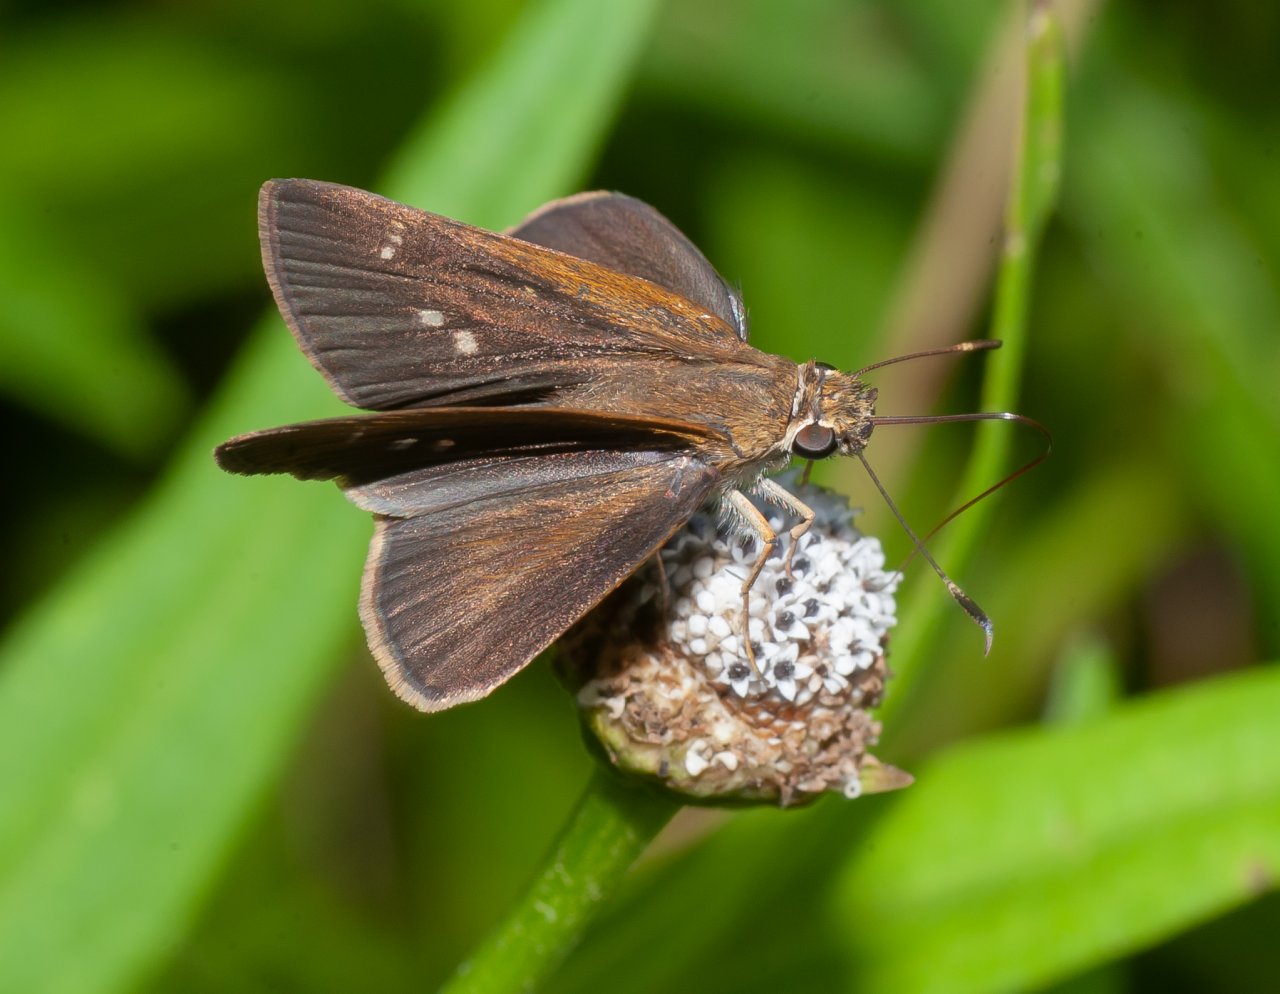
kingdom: Animalia
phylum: Arthropoda
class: Insecta
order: Lepidoptera
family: Hesperiidae
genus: Cymaenes
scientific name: Cymaenes tripunctus
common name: Three-spotted Skipper
